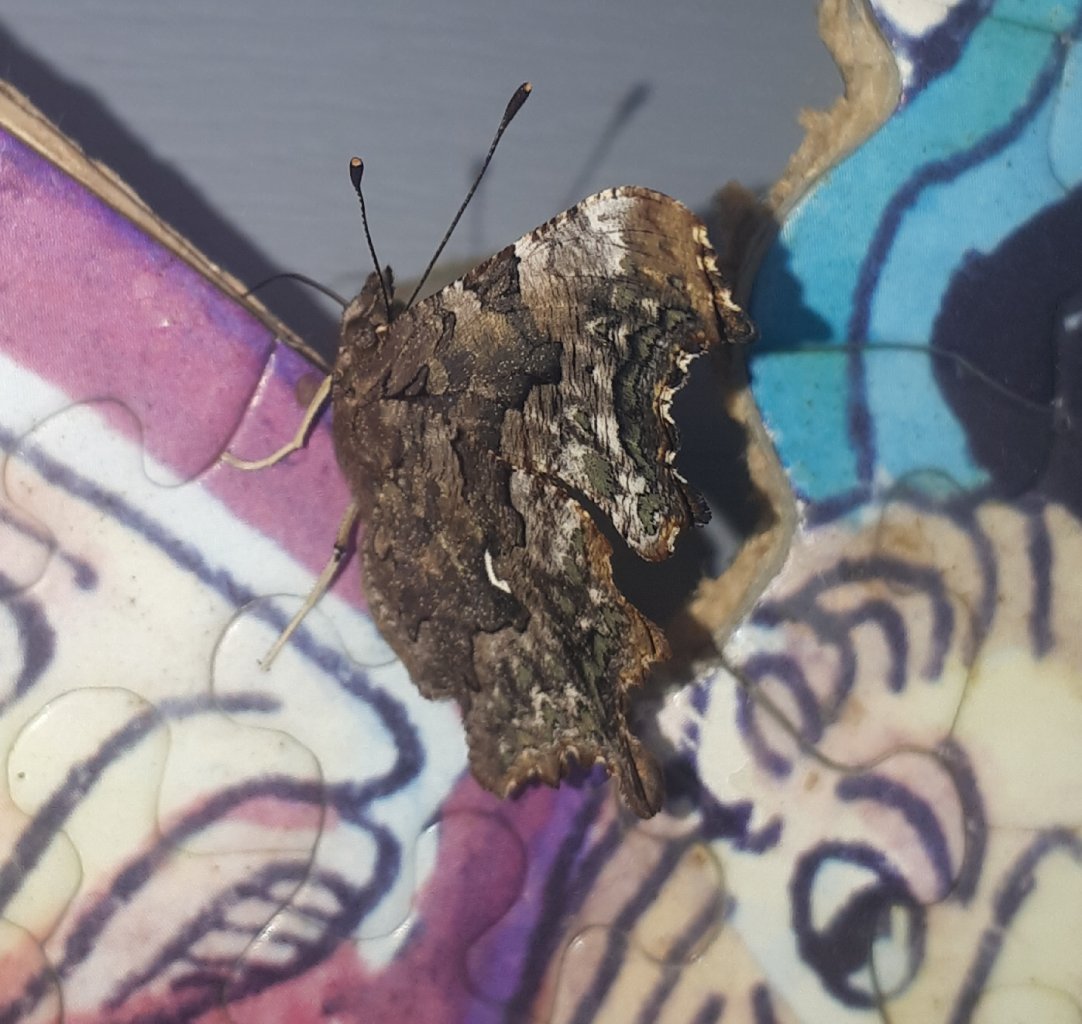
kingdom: Animalia
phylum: Arthropoda
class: Insecta
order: Lepidoptera
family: Nymphalidae
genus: Polygonia
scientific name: Polygonia faunus
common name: Green Comma
